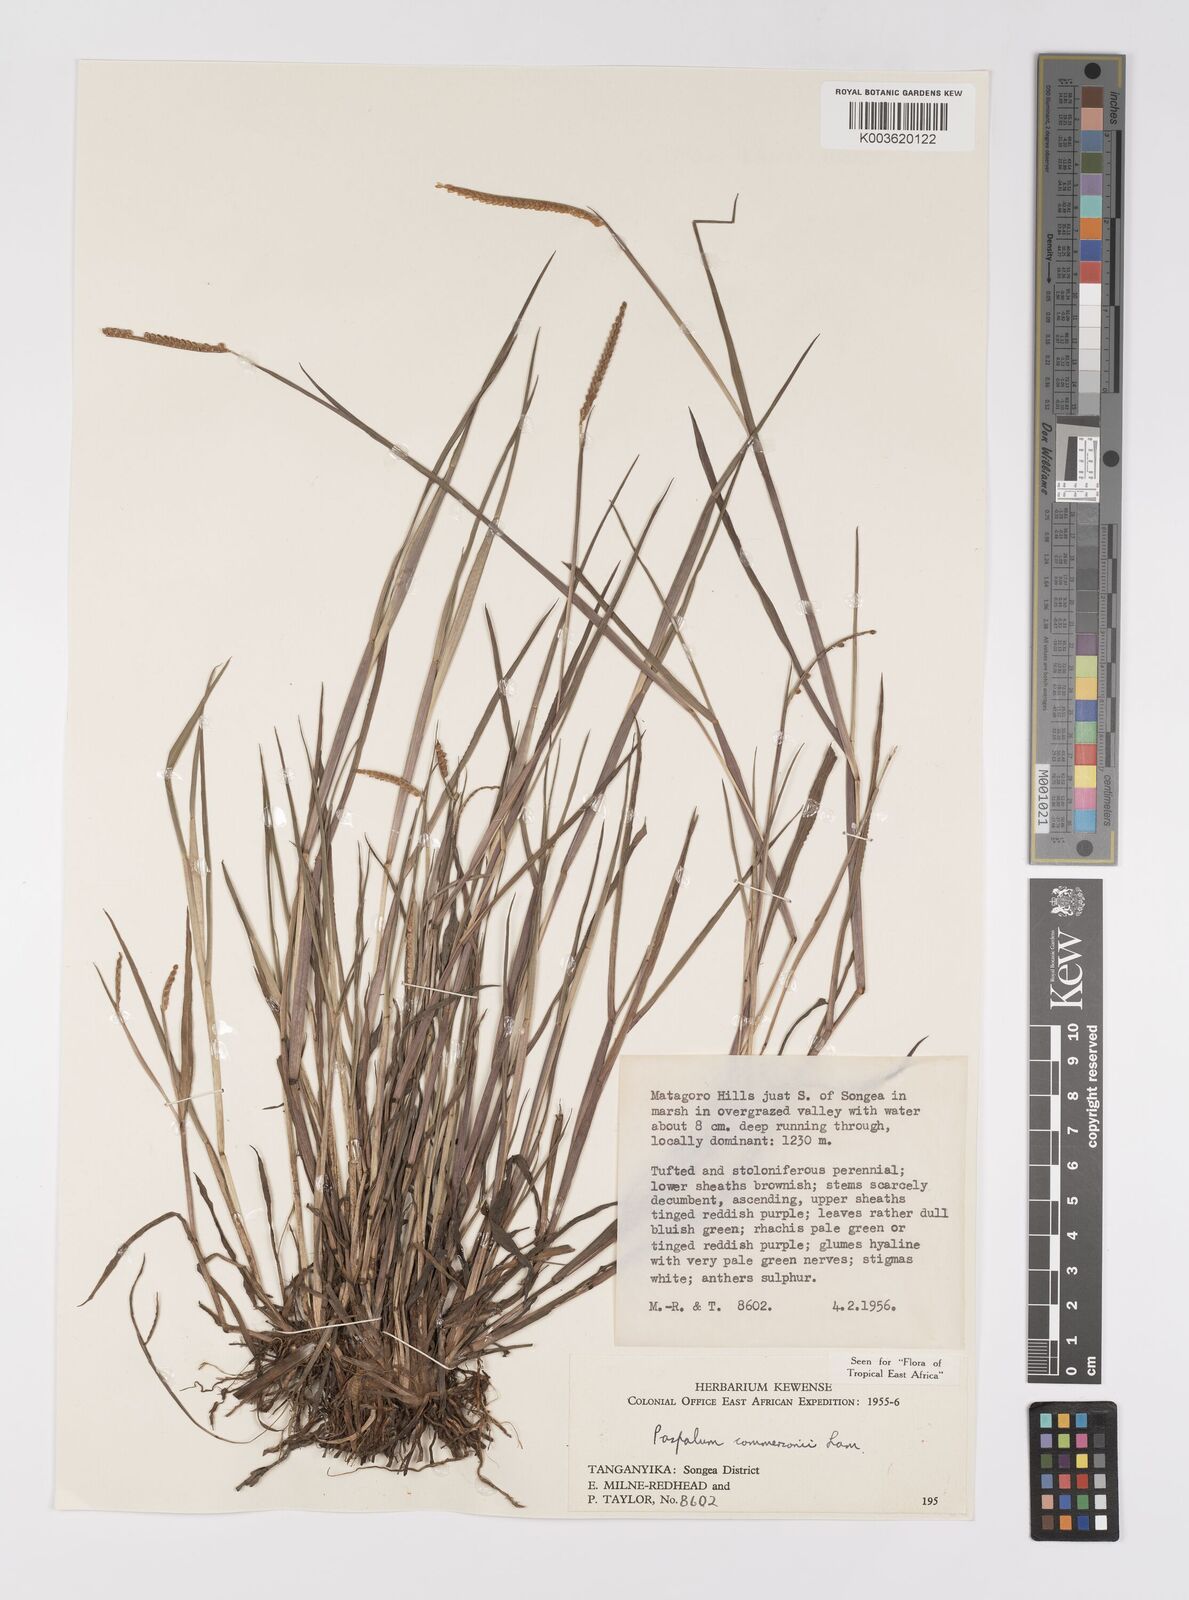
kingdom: Plantae
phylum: Tracheophyta
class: Liliopsida
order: Poales
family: Poaceae
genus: Paspalum
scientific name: Paspalum scrobiculatum
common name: Kodo millet
